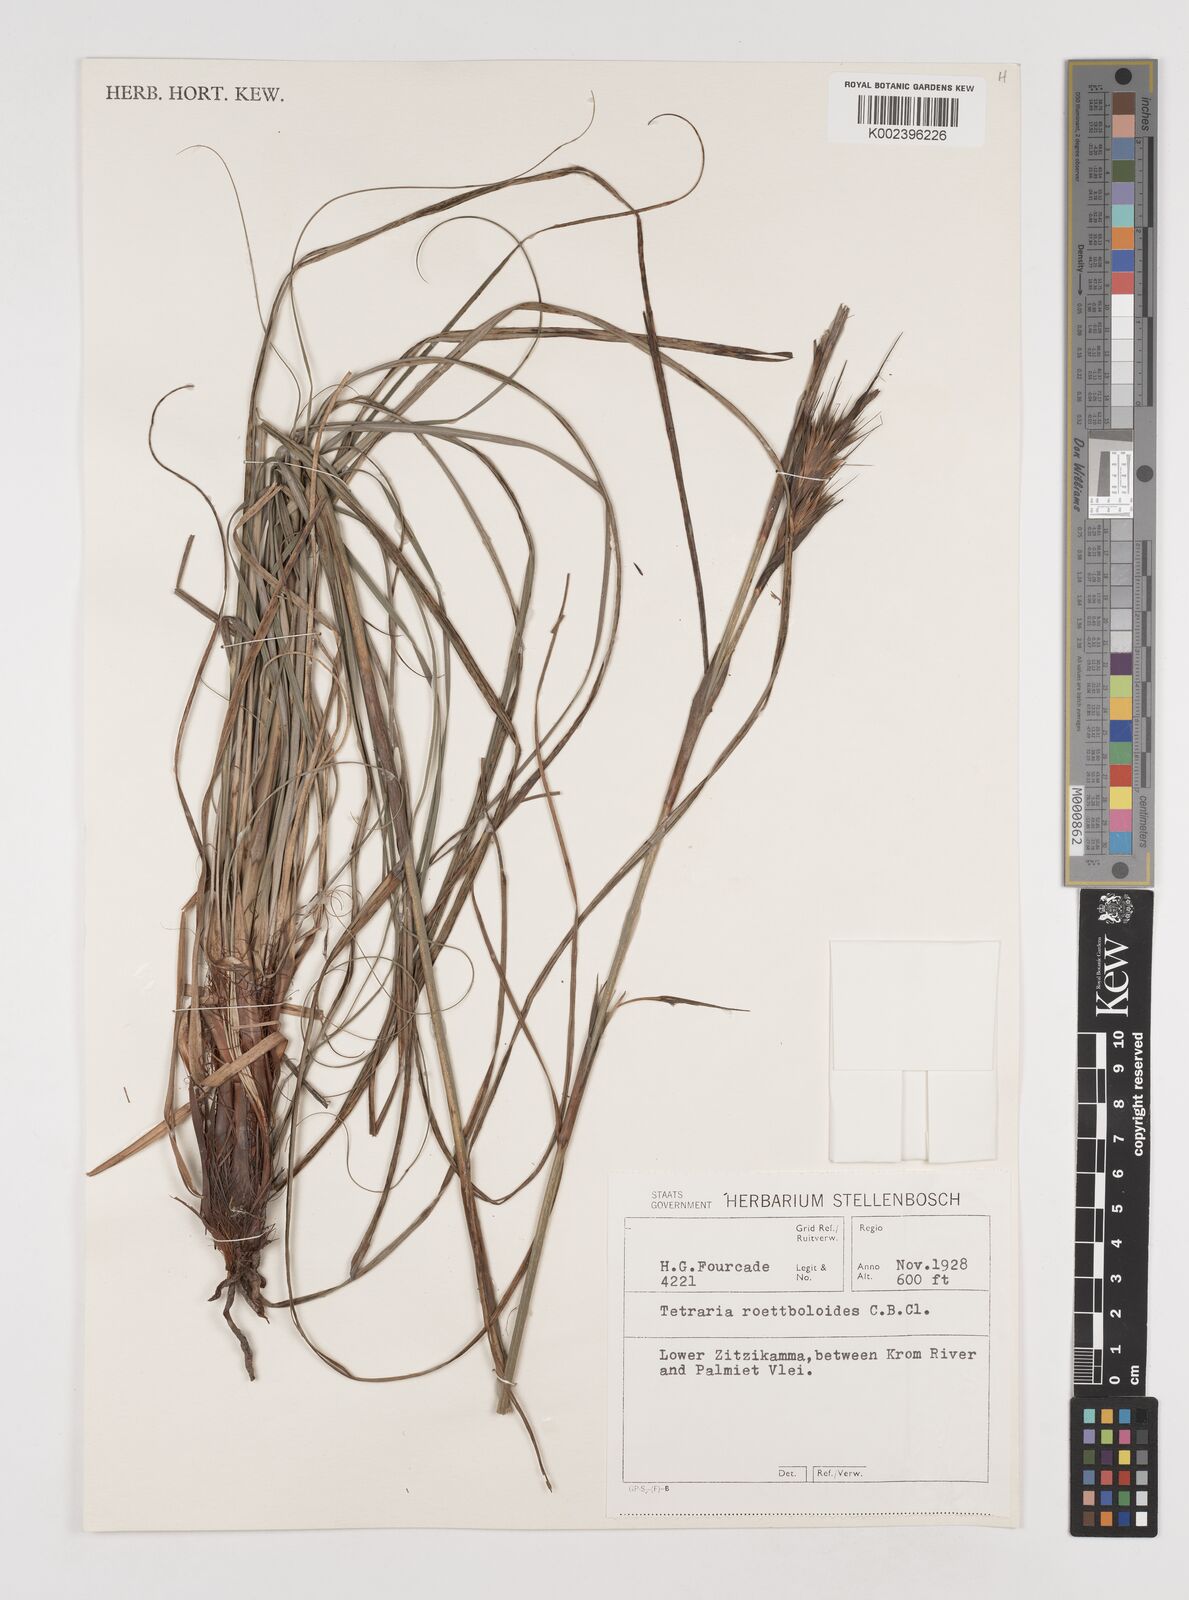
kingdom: Plantae
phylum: Tracheophyta
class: Liliopsida
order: Poales
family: Cyperaceae
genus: Tetraria
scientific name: Tetraria bromoides
